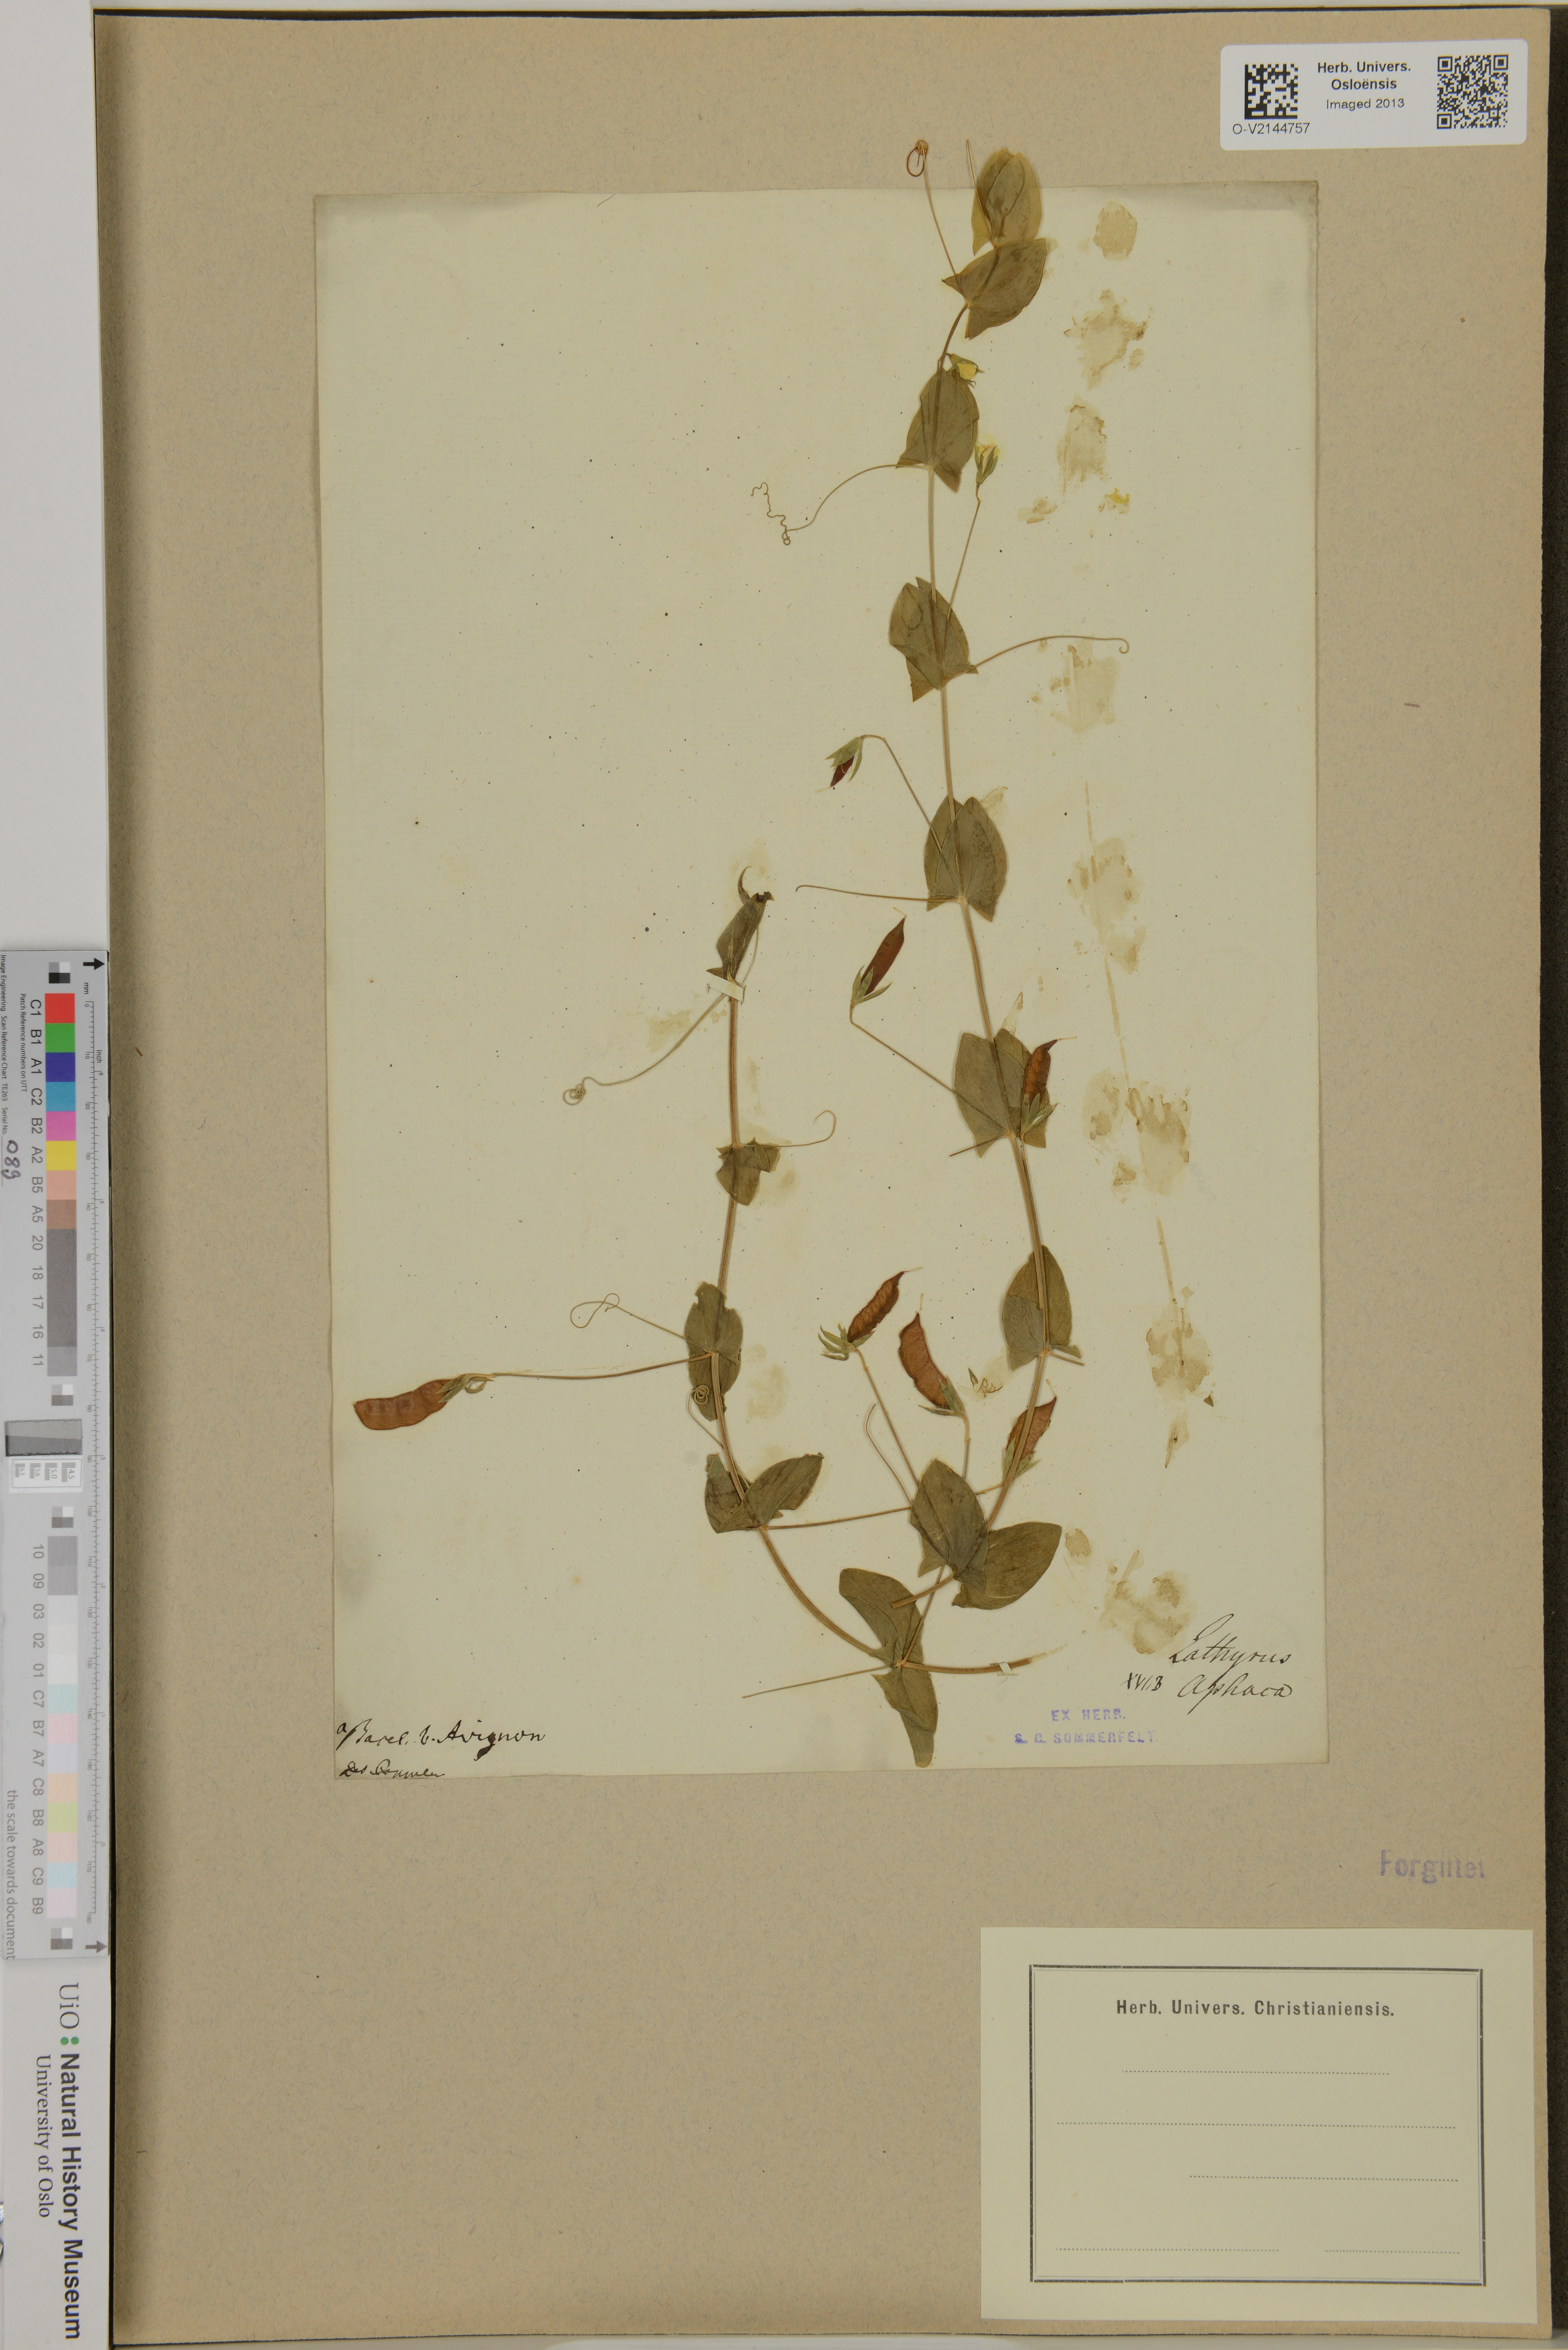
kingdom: Plantae
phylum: Tracheophyta
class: Magnoliopsida
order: Fabales
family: Fabaceae
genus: Lathyrus
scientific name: Lathyrus aphaca
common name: Yellow vetchling
